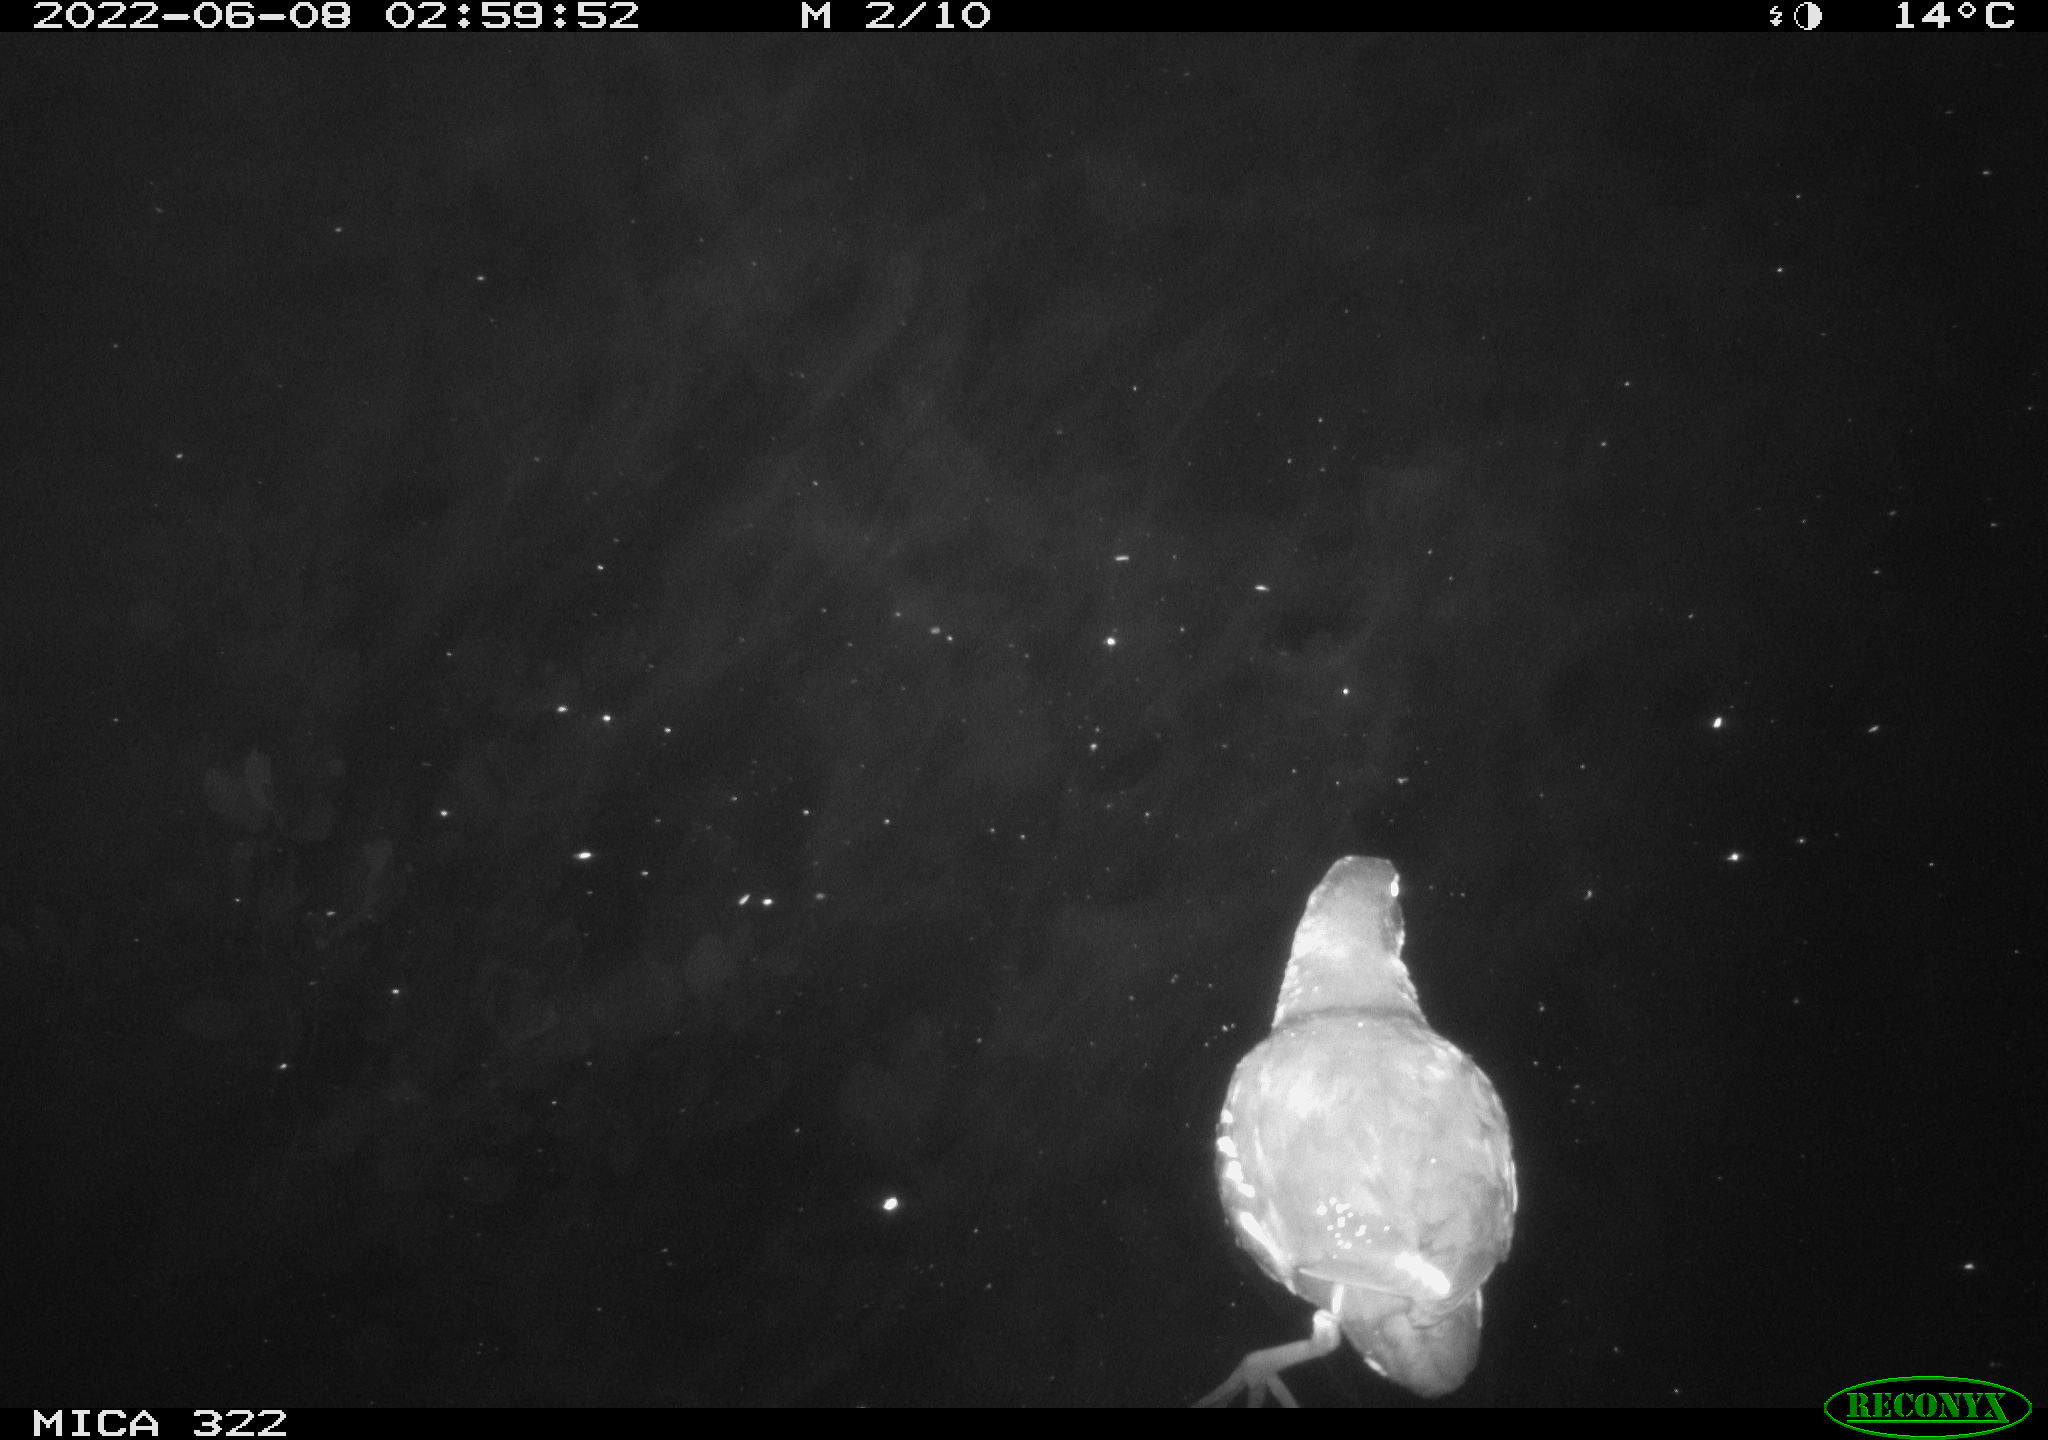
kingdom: Animalia
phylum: Chordata
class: Aves
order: Gruiformes
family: Rallidae
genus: Gallinula
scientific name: Gallinula chloropus
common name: Common moorhen
